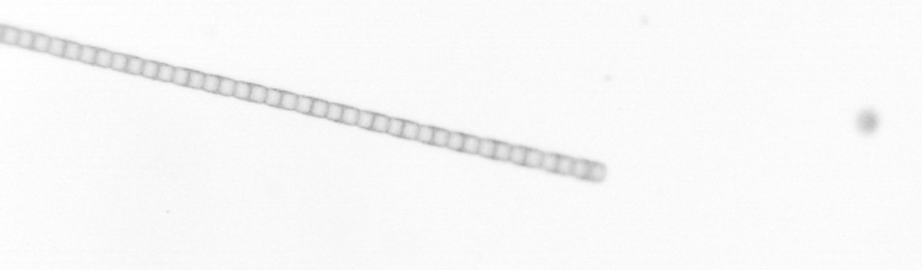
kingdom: Chromista
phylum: Ochrophyta
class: Bacillariophyceae
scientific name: Bacillariophyceae
